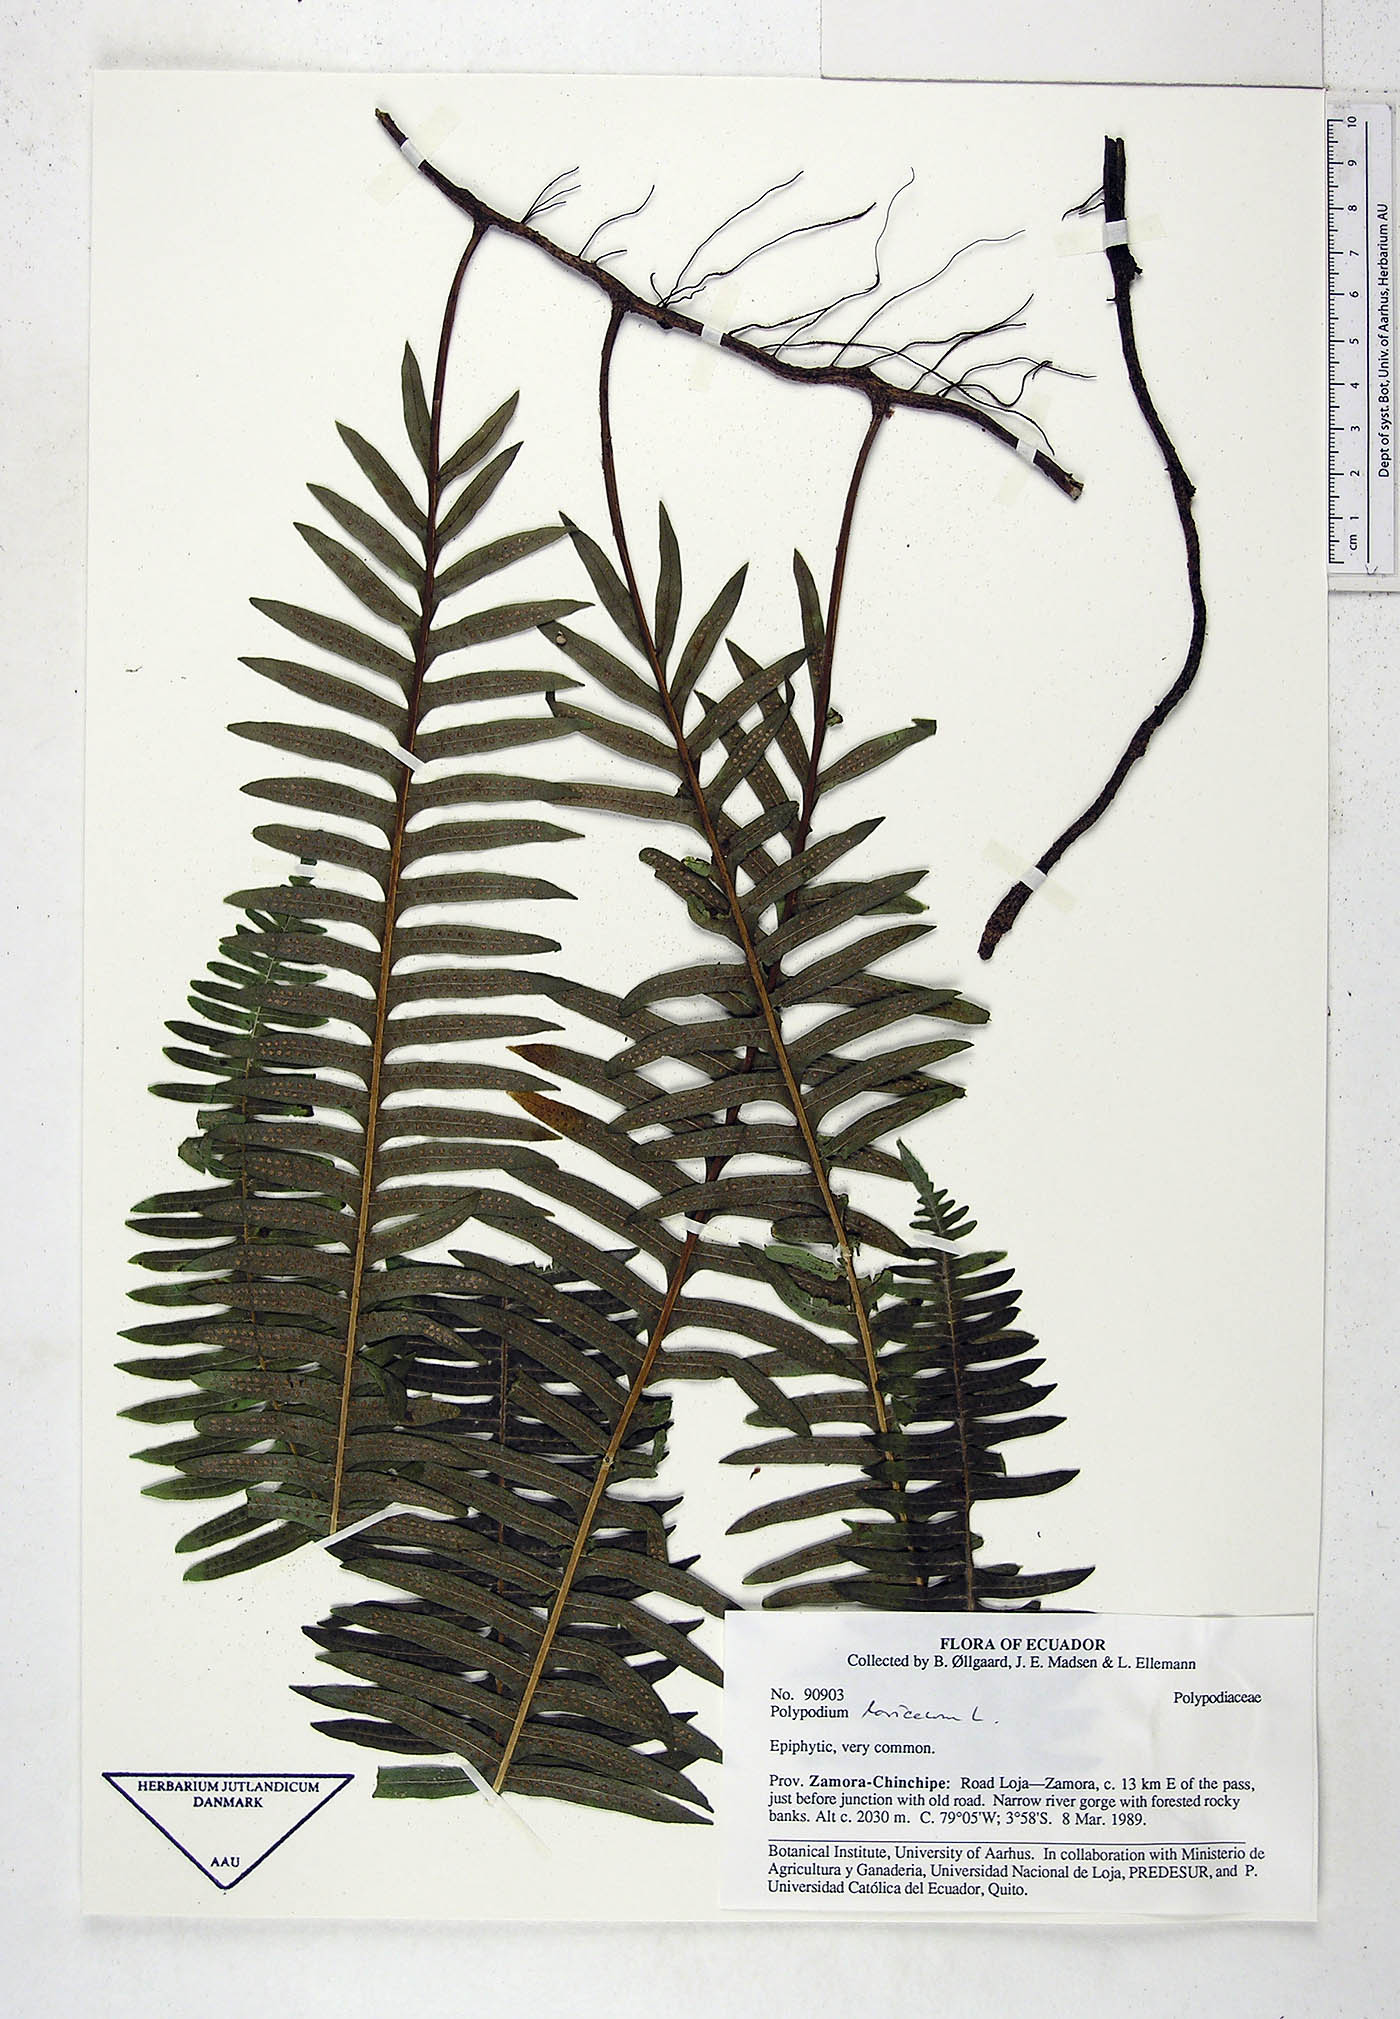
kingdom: Plantae
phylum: Tracheophyta
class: Polypodiopsida
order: Polypodiales
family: Polypodiaceae
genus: Serpocaulon
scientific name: Serpocaulon loriceum
